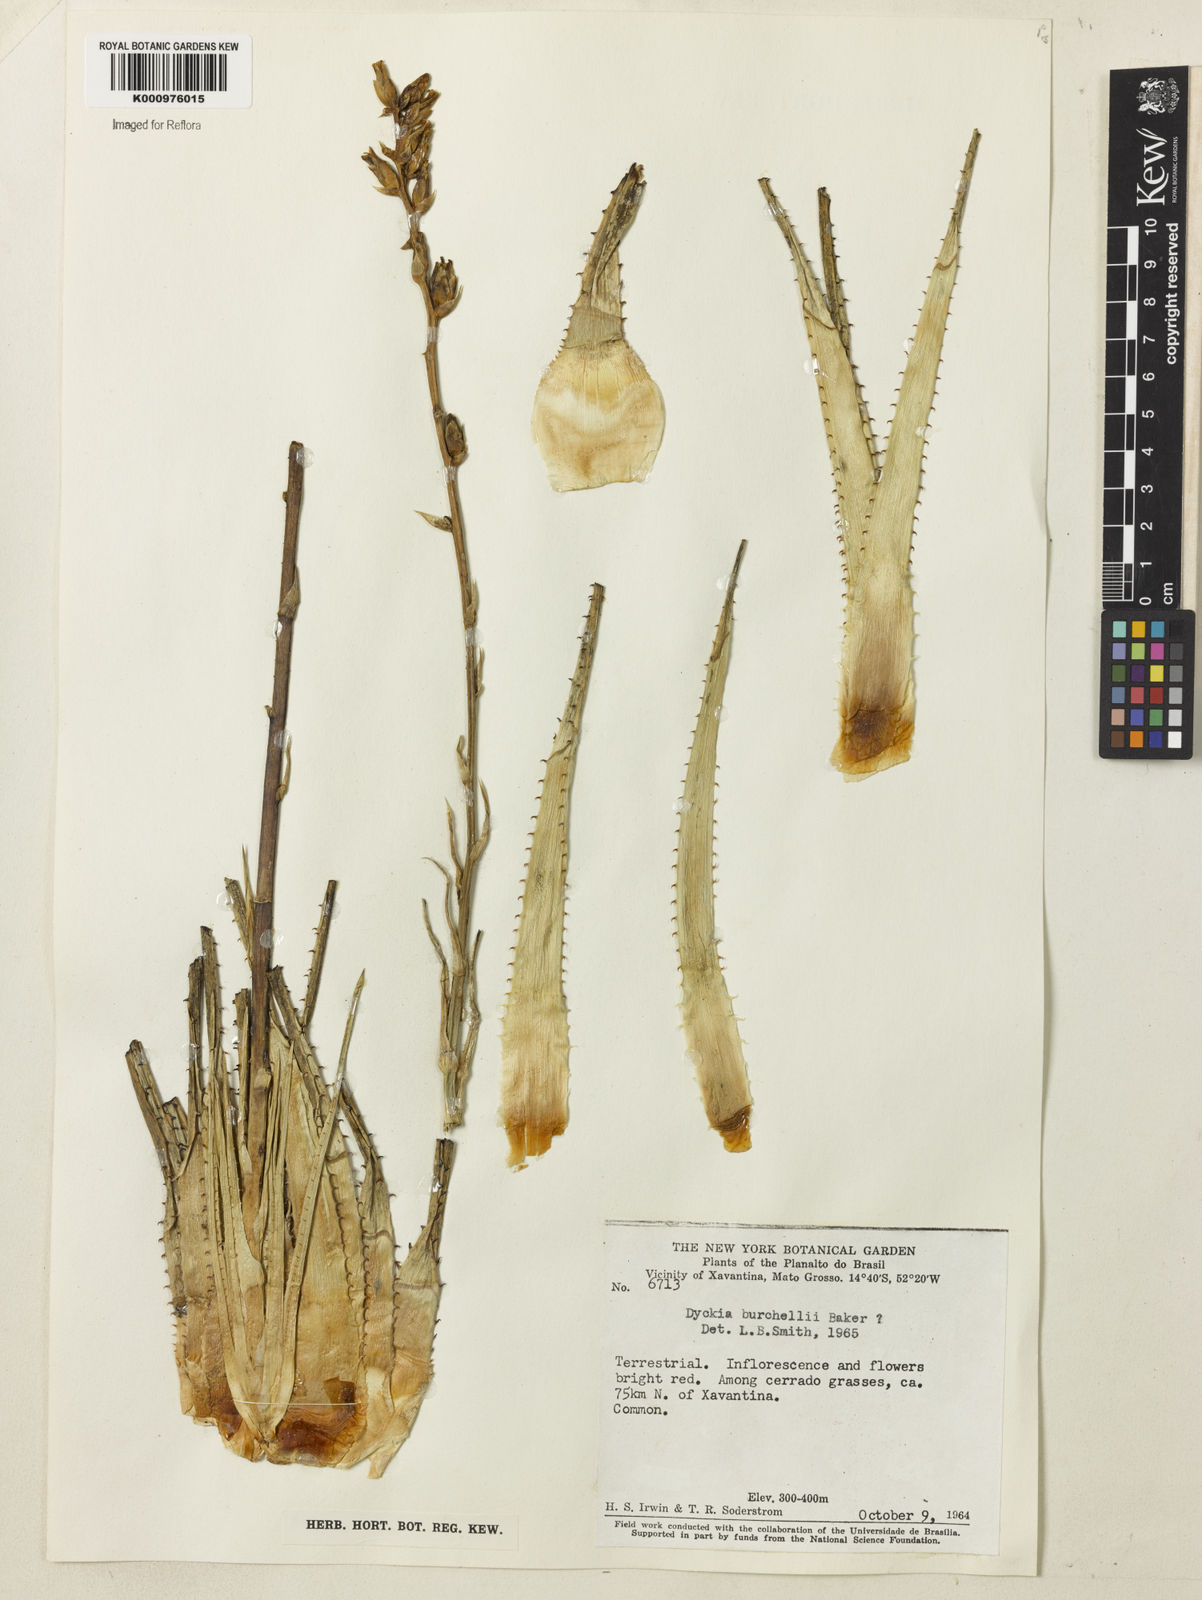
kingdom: Plantae
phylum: Tracheophyta
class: Liliopsida
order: Poales
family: Bromeliaceae
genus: Dyckia
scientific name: Dyckia burchellii
